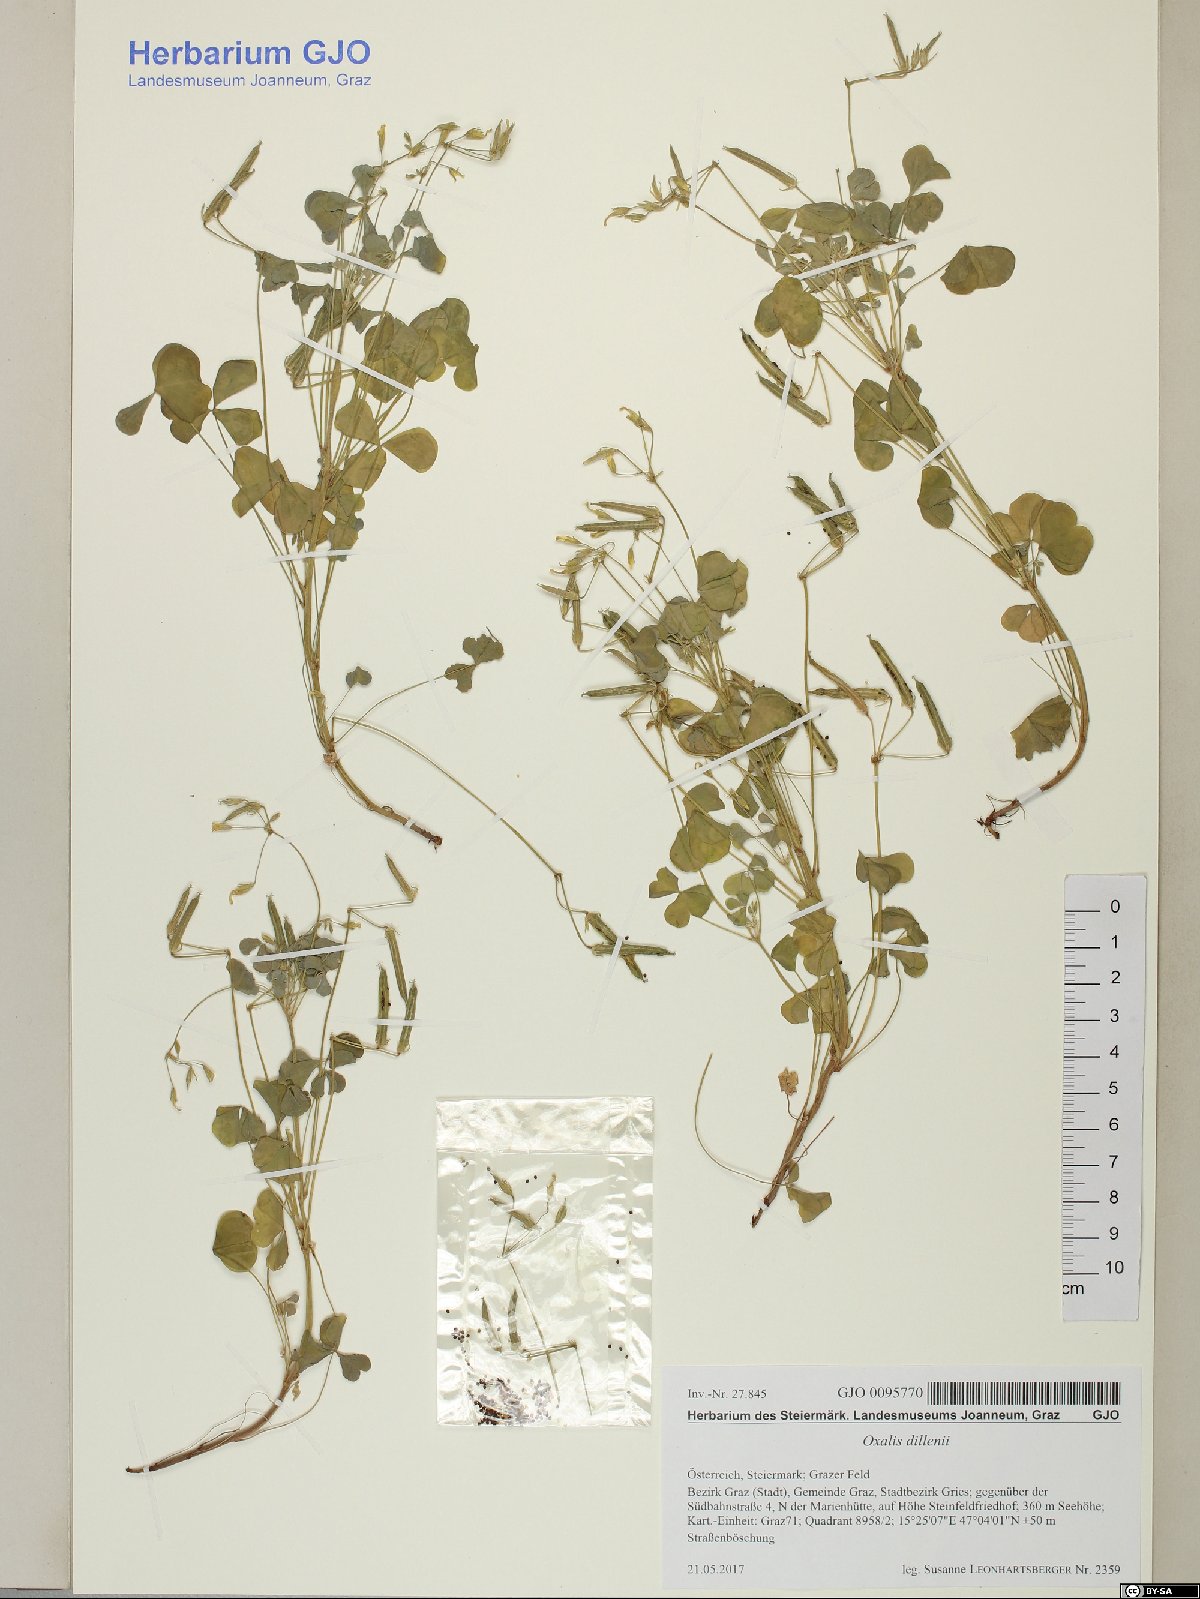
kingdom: Plantae
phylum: Tracheophyta
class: Magnoliopsida
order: Oxalidales
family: Oxalidaceae
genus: Oxalis
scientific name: Oxalis dillenii
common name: Sussex yellow-sorrel
